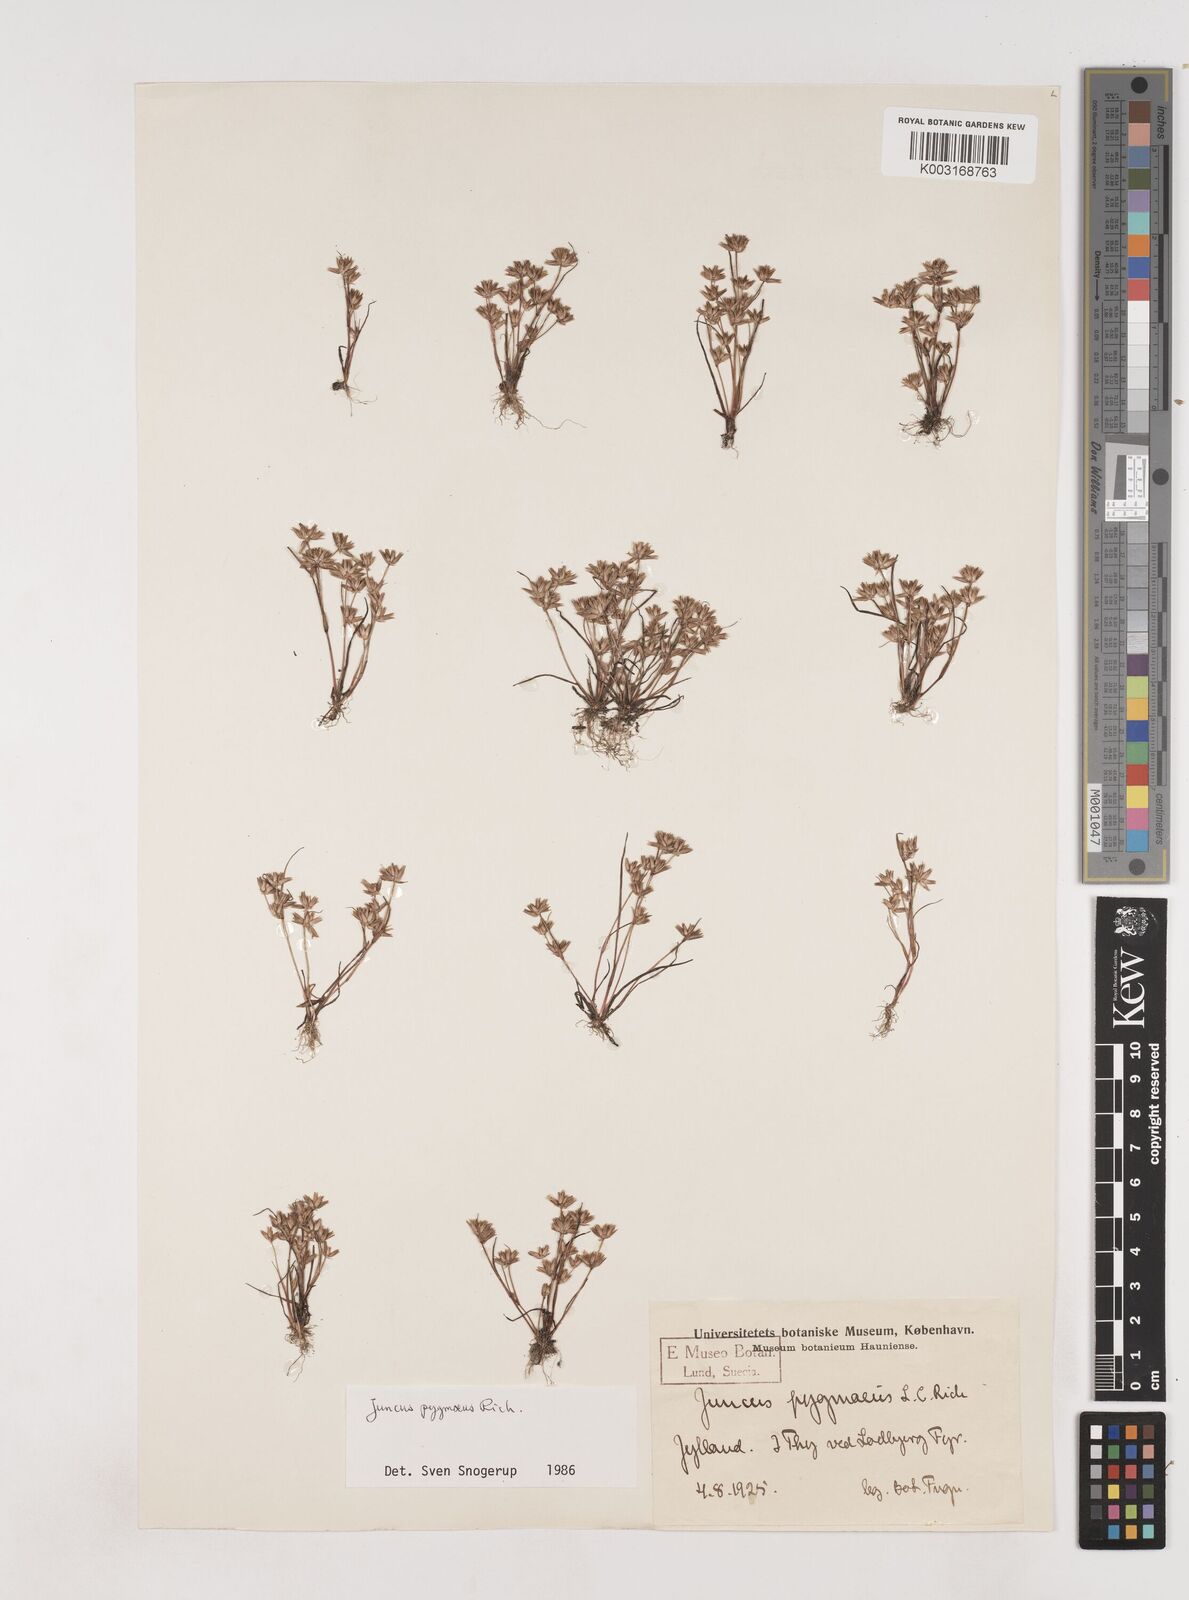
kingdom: Plantae
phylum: Tracheophyta
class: Liliopsida
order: Poales
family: Juncaceae
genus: Juncus
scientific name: Juncus pygmaeus
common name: Pigmy rush
